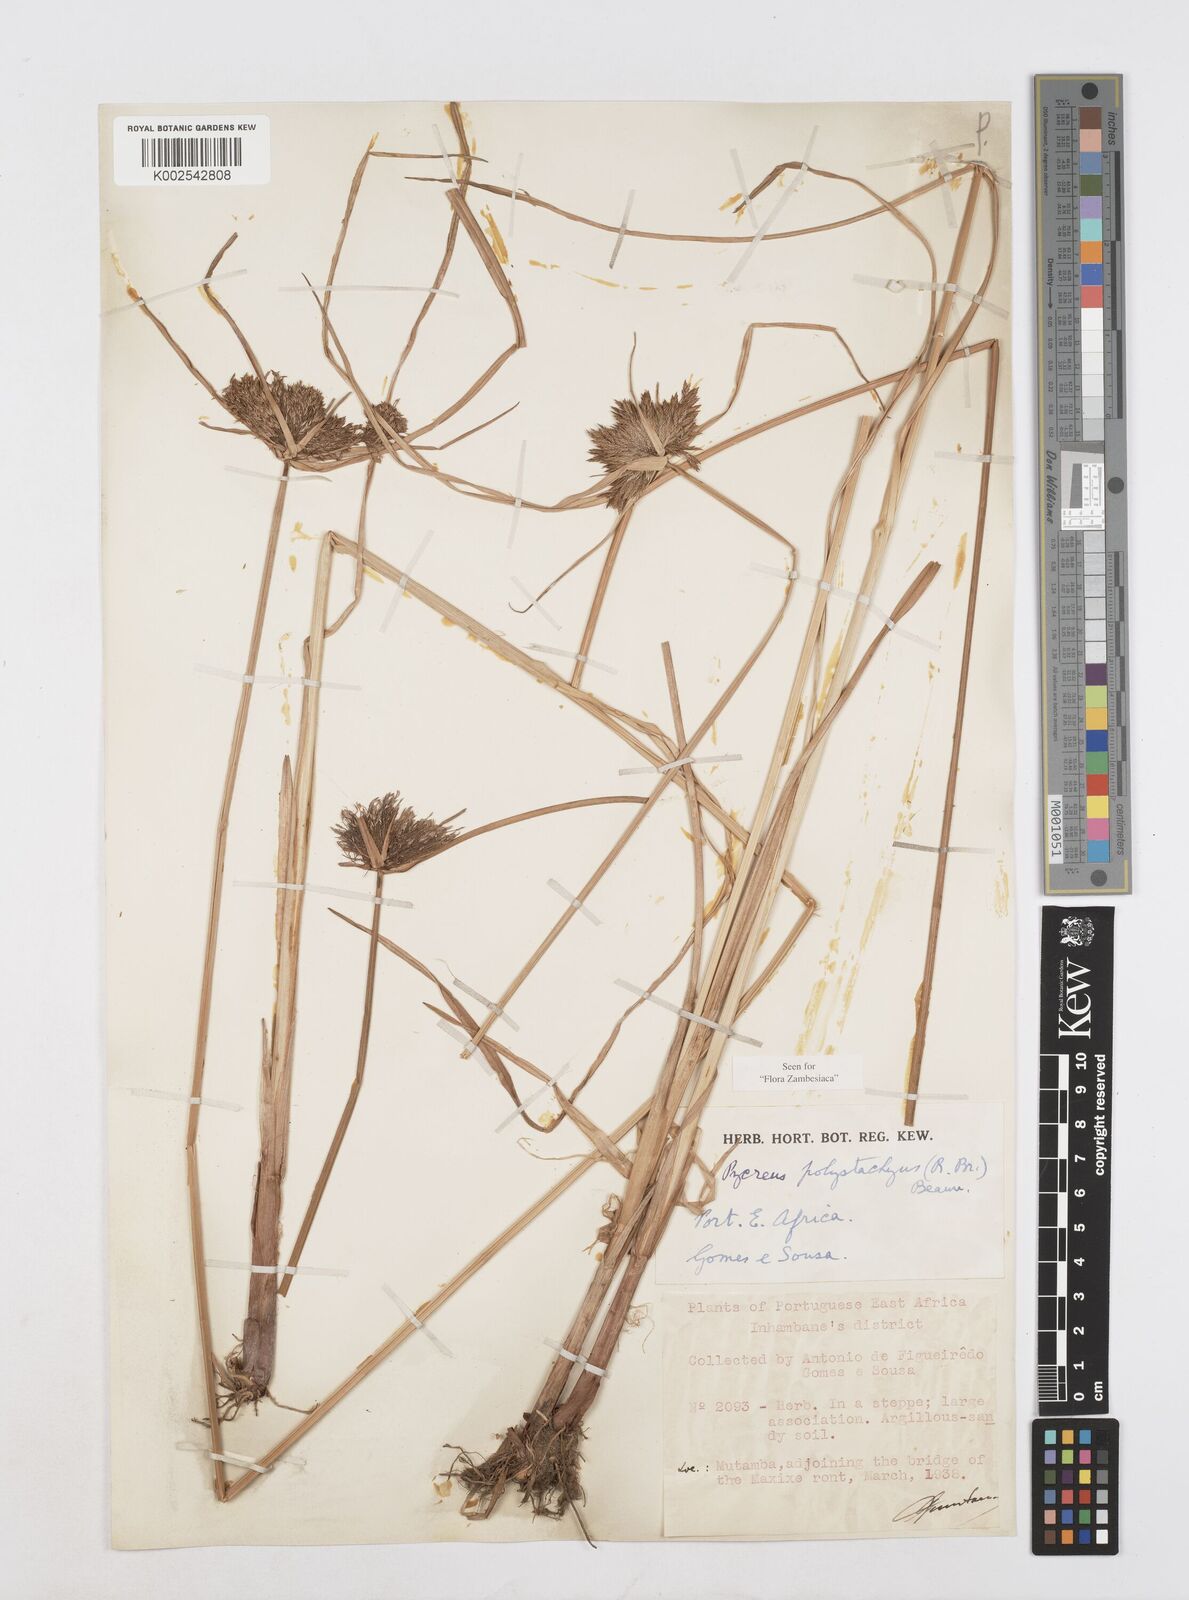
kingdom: Plantae
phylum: Tracheophyta
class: Liliopsida
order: Poales
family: Cyperaceae
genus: Cyperus
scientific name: Cyperus polystachyos
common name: Bunchy flat sedge
